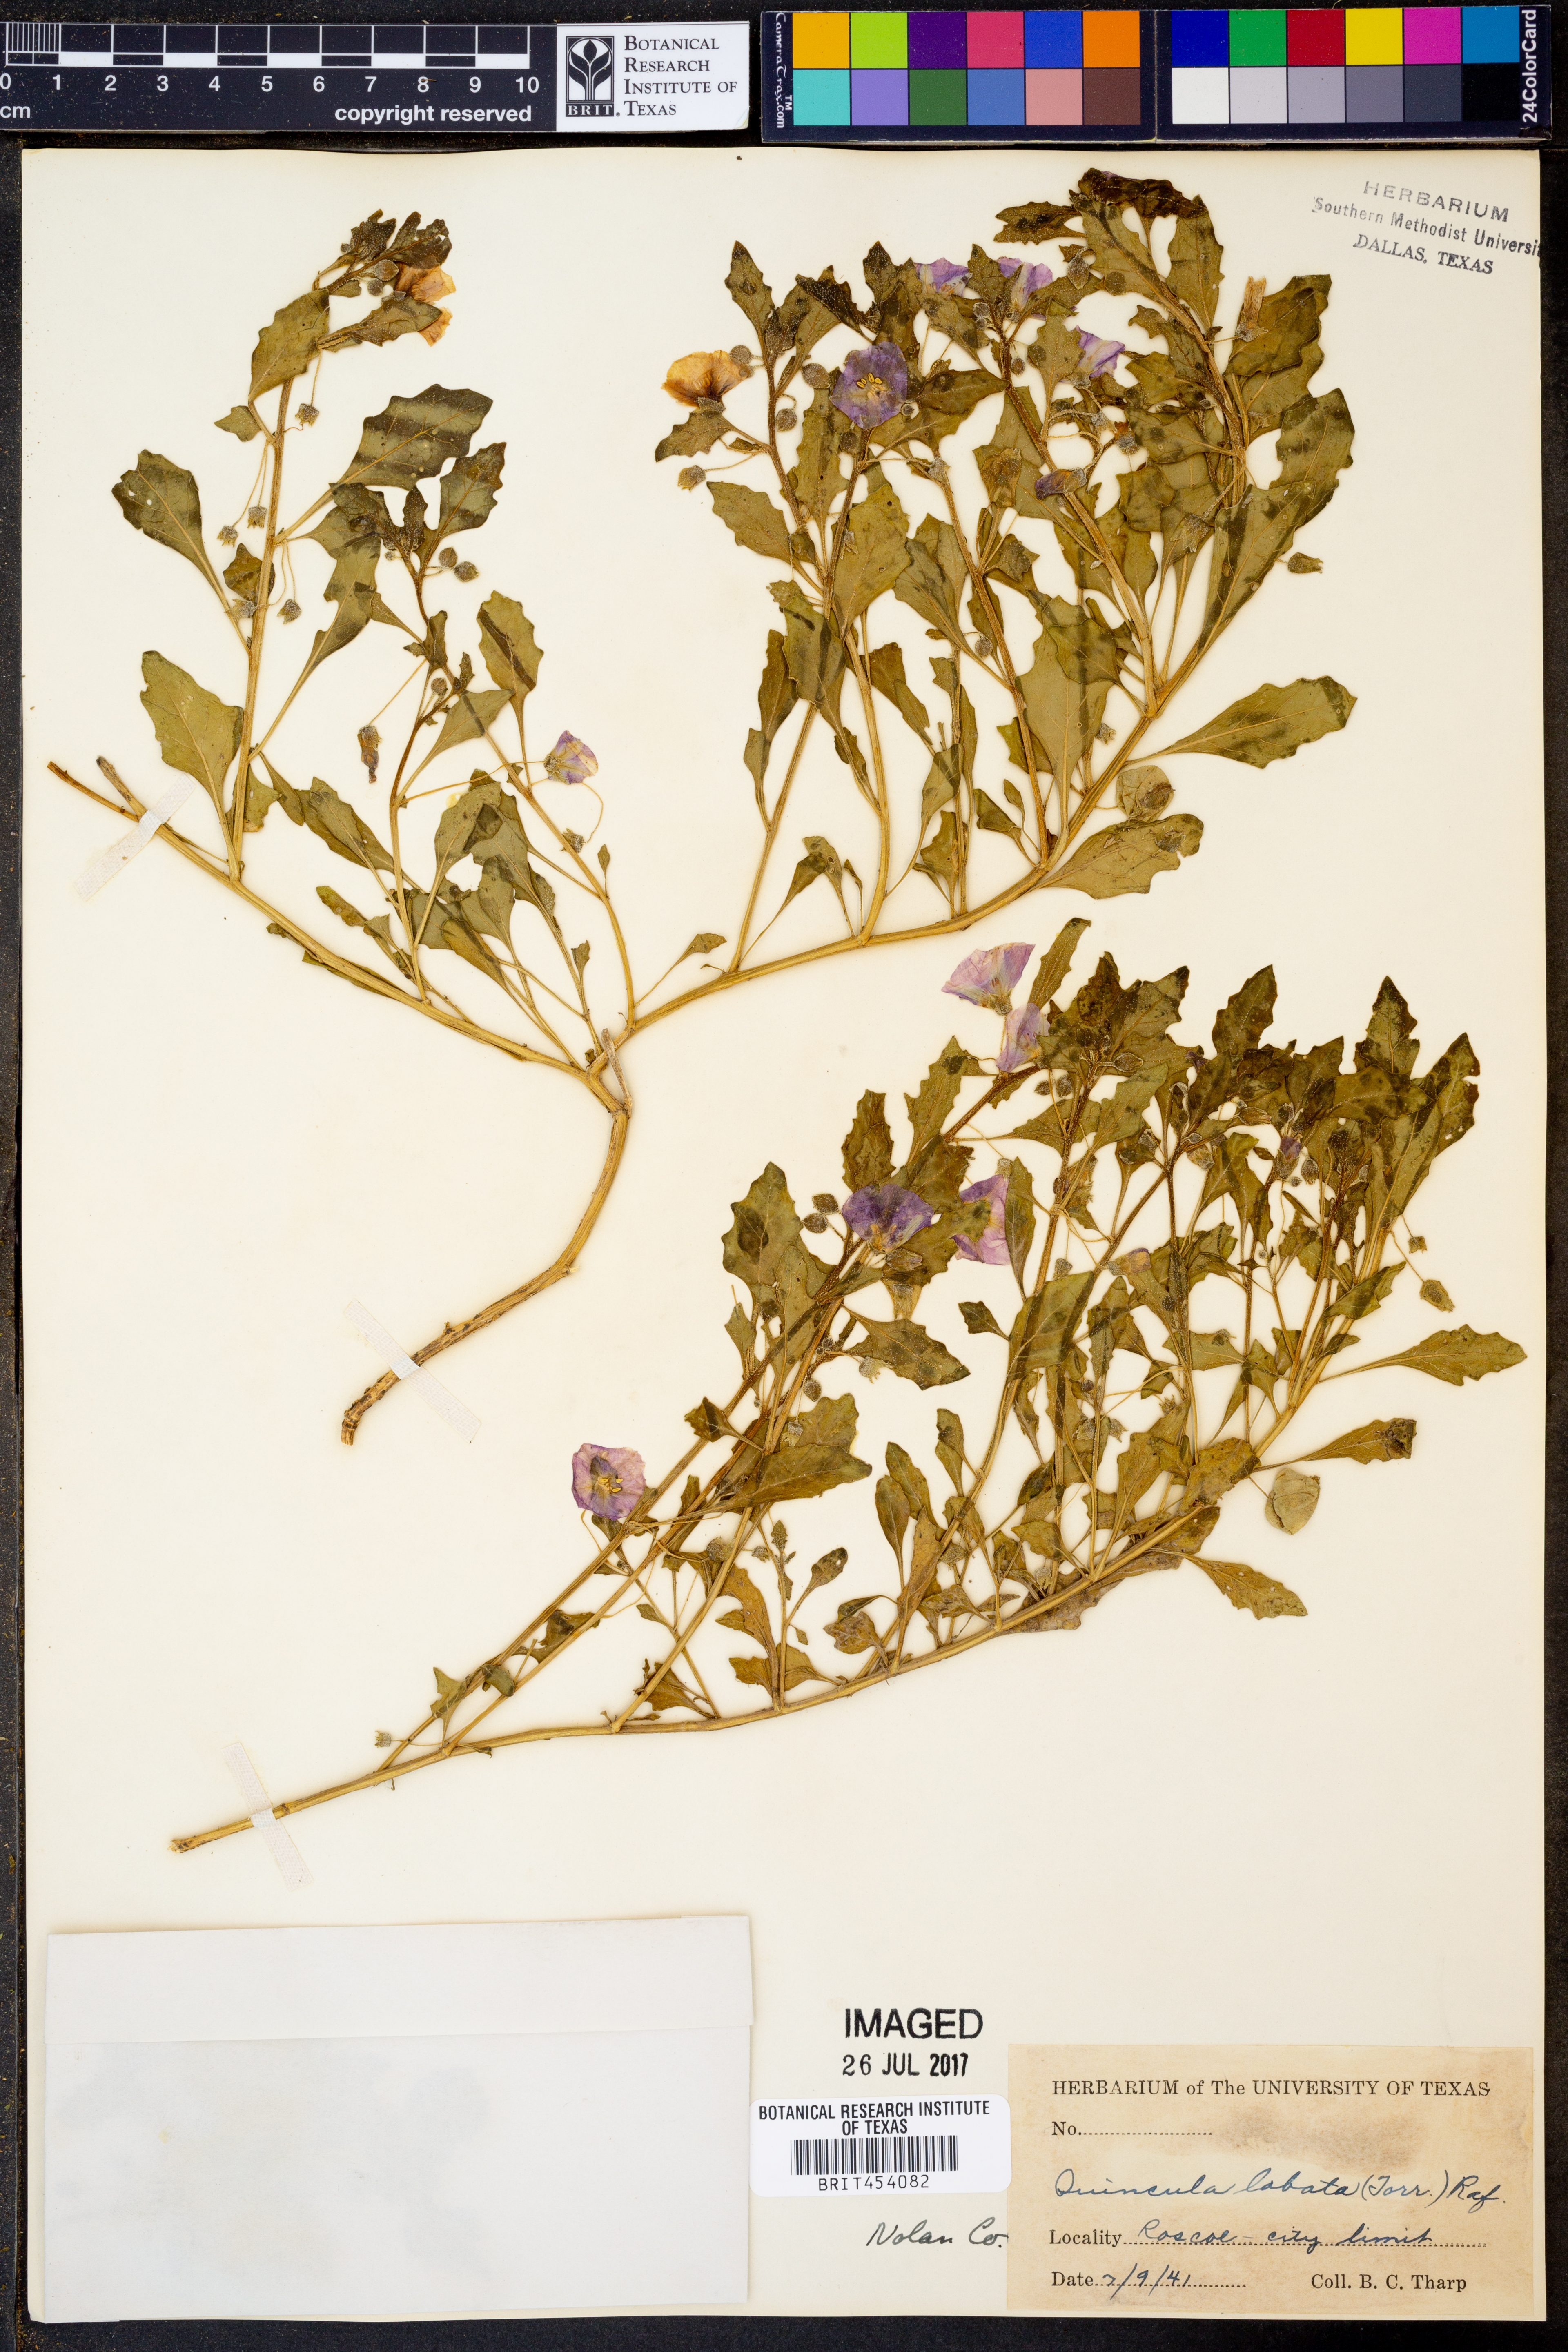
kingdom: Plantae
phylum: Tracheophyta
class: Magnoliopsida
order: Solanales
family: Solanaceae
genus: Quincula
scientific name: Quincula lobata
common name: Purple-ground-cherry
